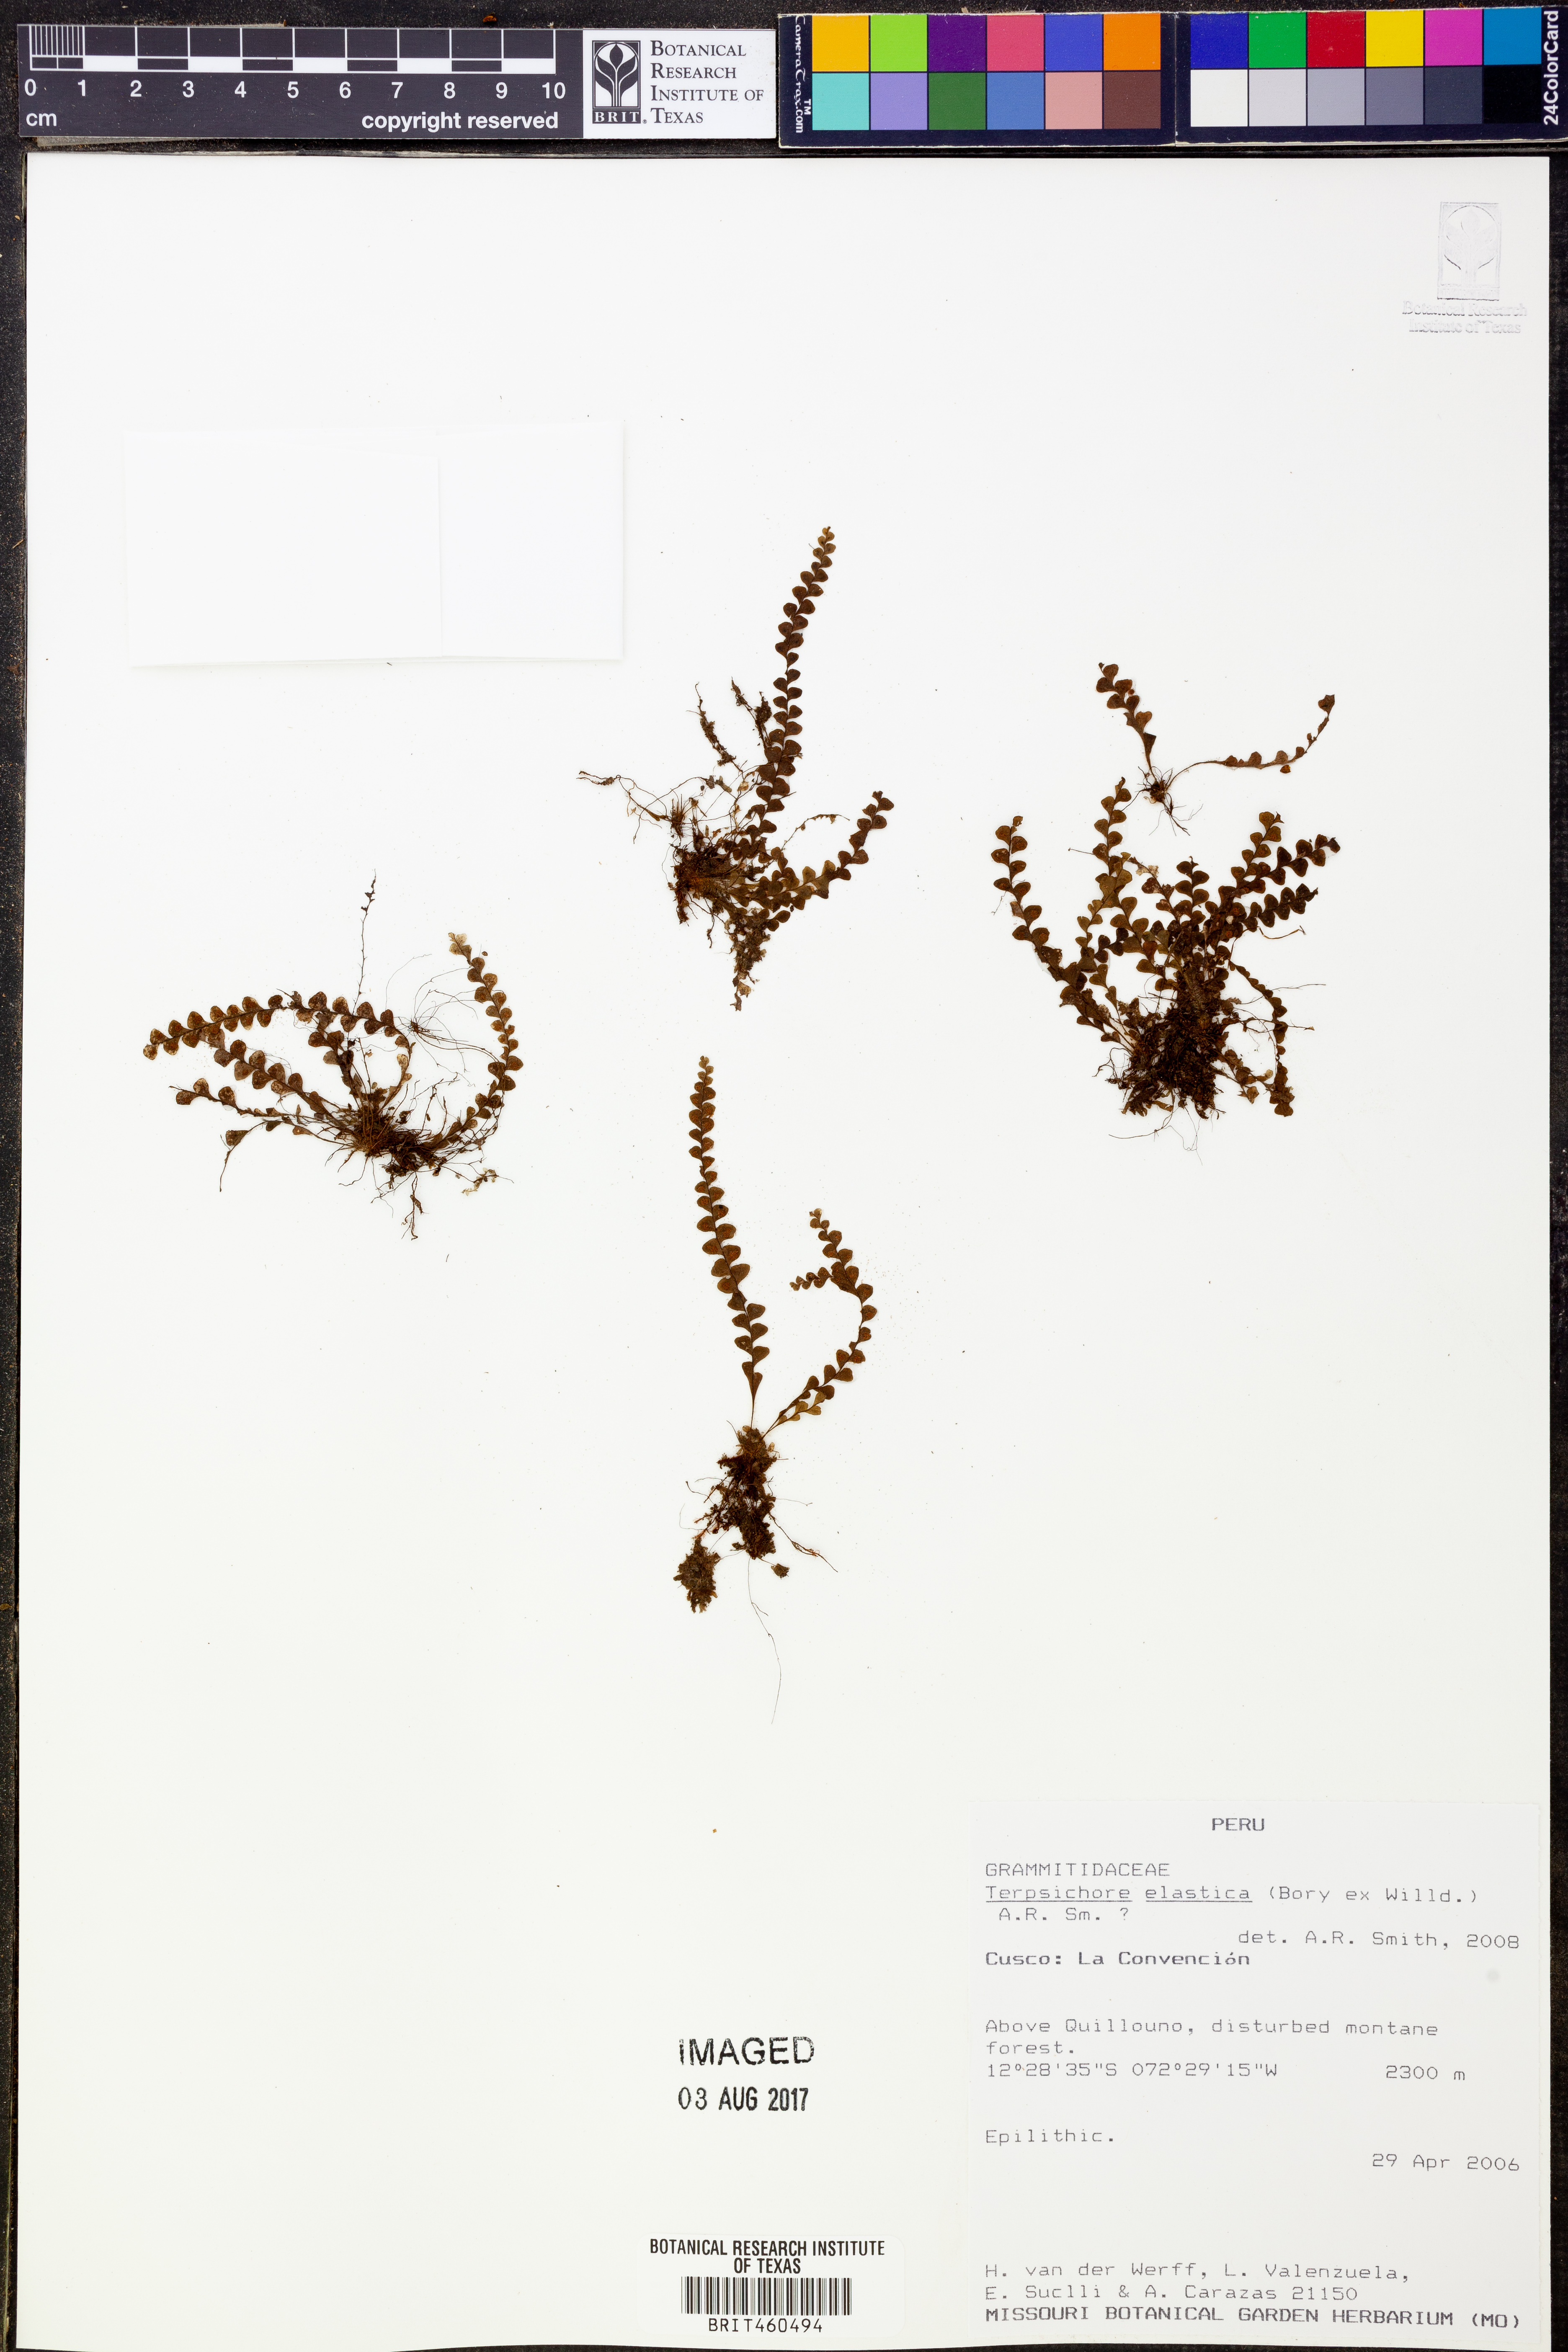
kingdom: Plantae
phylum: Tracheophyta
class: Polypodiopsida
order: Polypodiales
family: Polypodiaceae
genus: Alansmia
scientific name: Alansmia elastica
